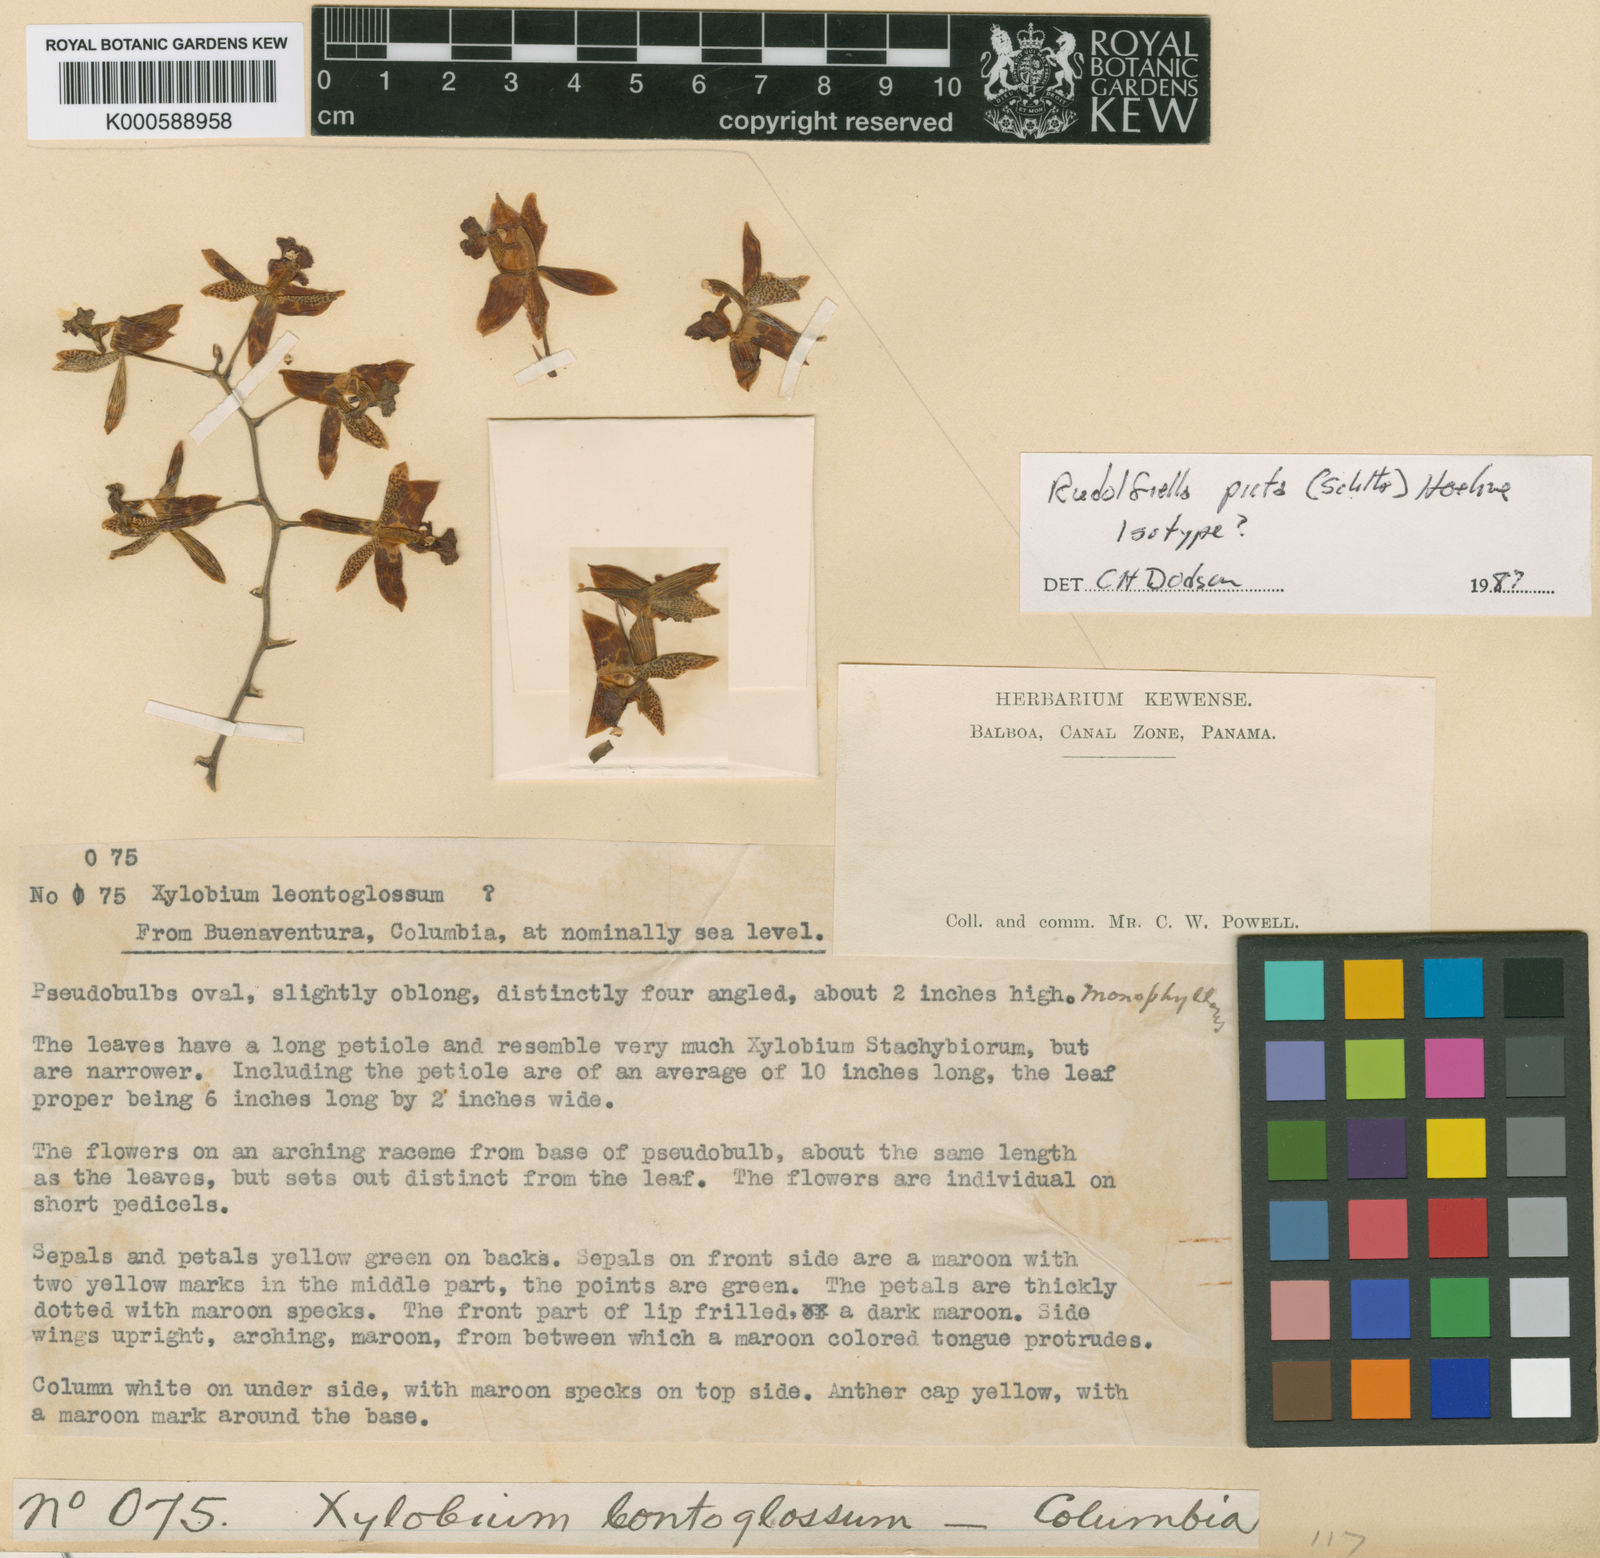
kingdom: Plantae
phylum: Tracheophyta
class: Liliopsida
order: Asparagales
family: Orchidaceae
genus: Rudolfiella
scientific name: Rudolfiella picta
